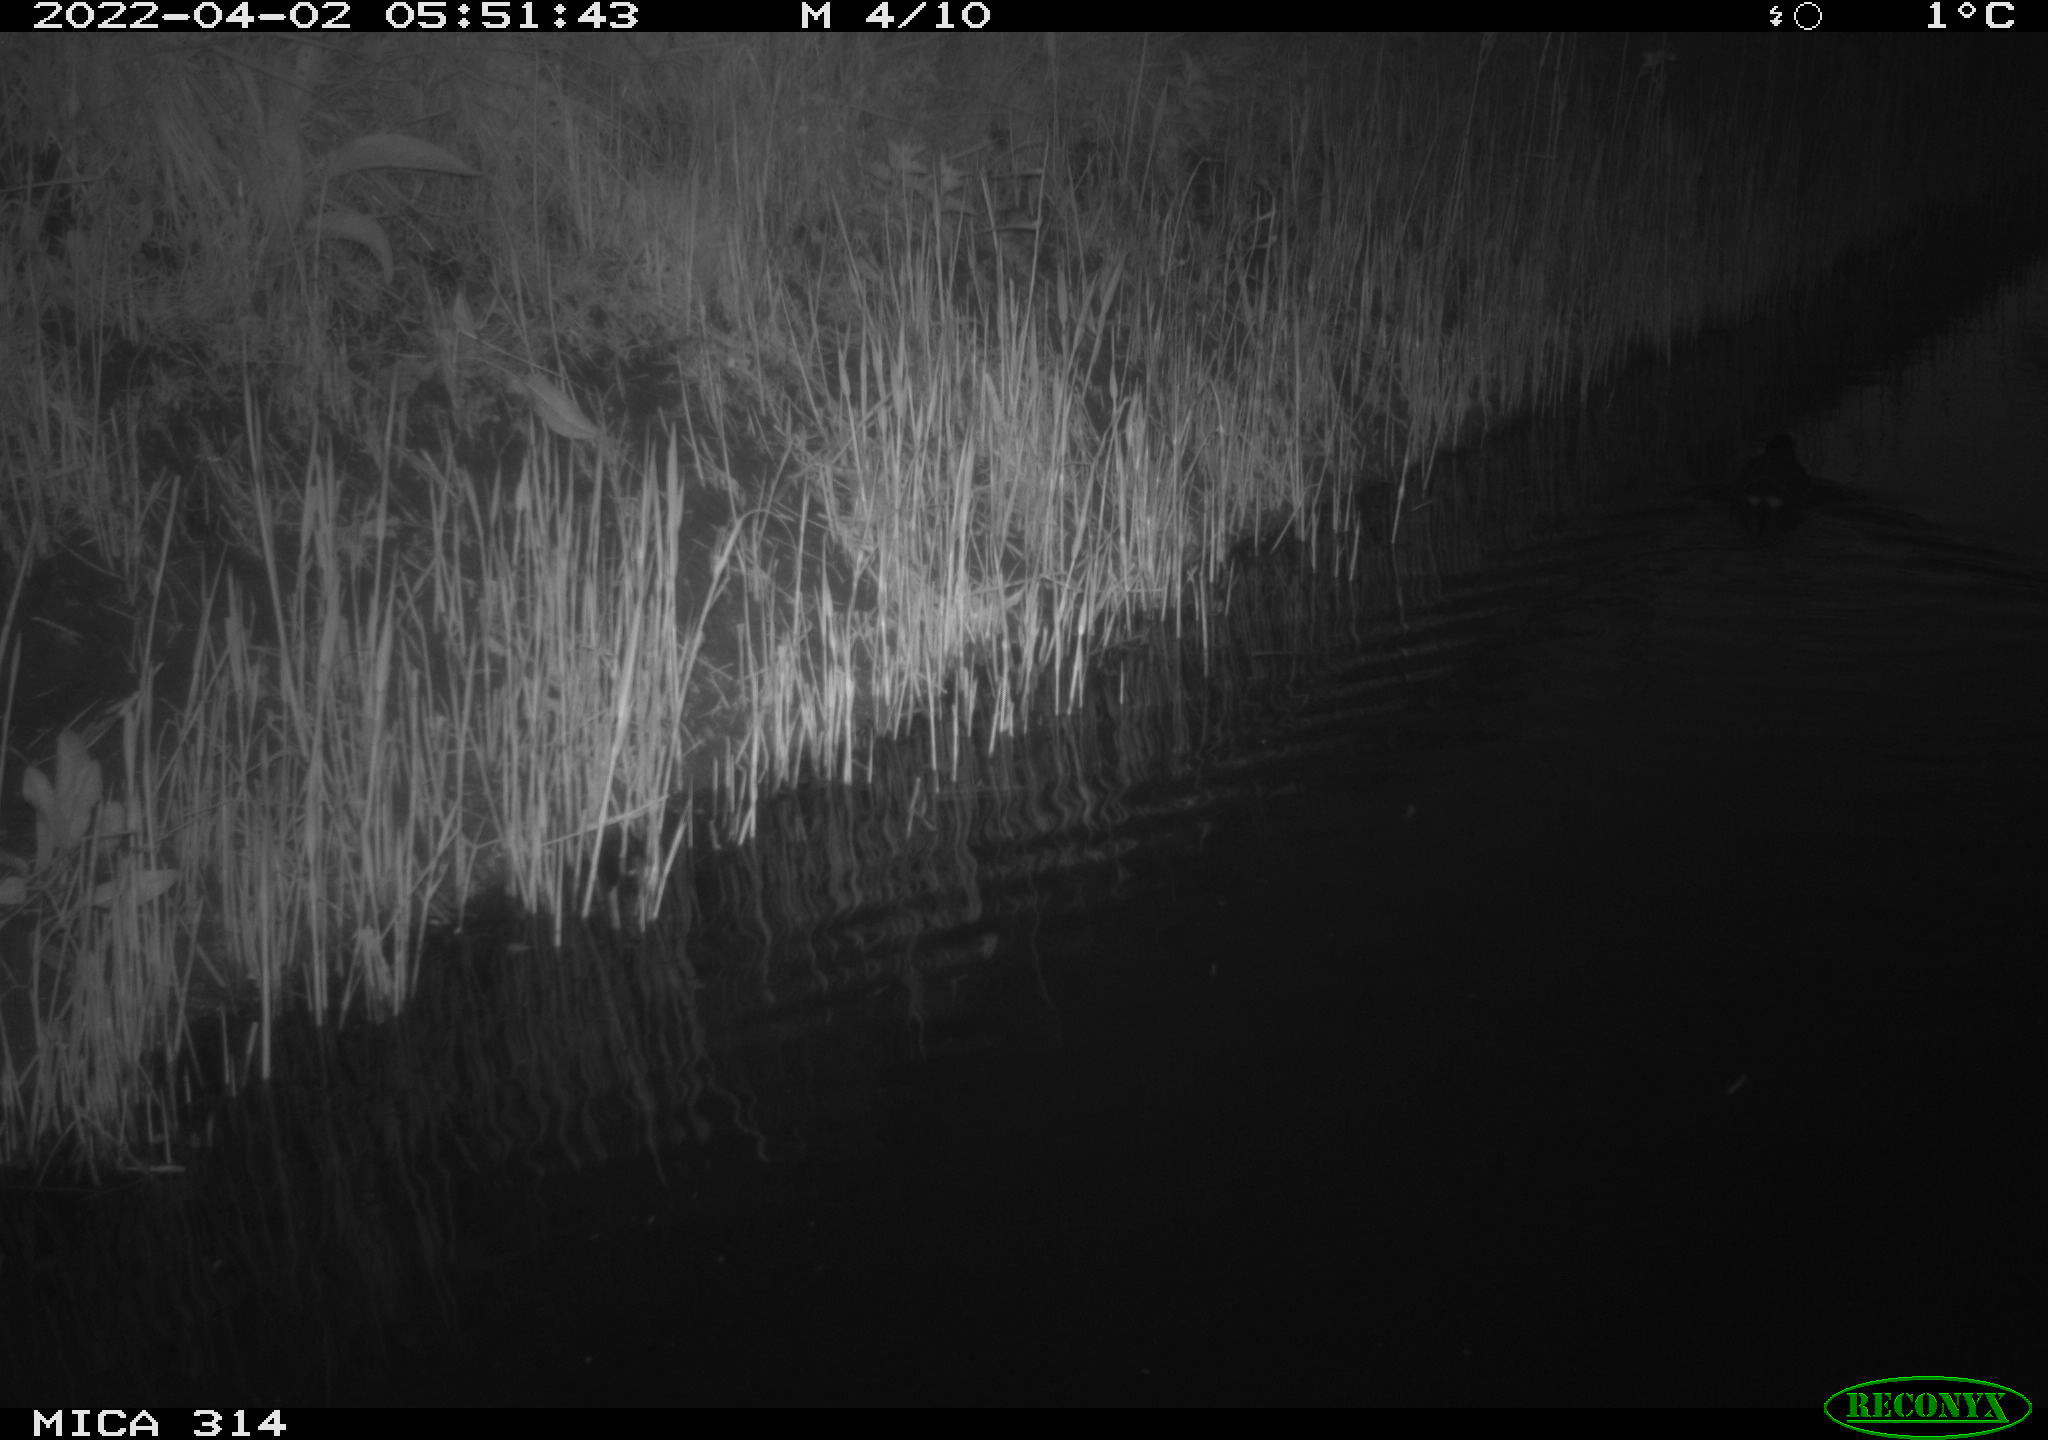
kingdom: Animalia
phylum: Chordata
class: Aves
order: Gruiformes
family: Rallidae
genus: Gallinula
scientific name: Gallinula chloropus
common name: Common moorhen
